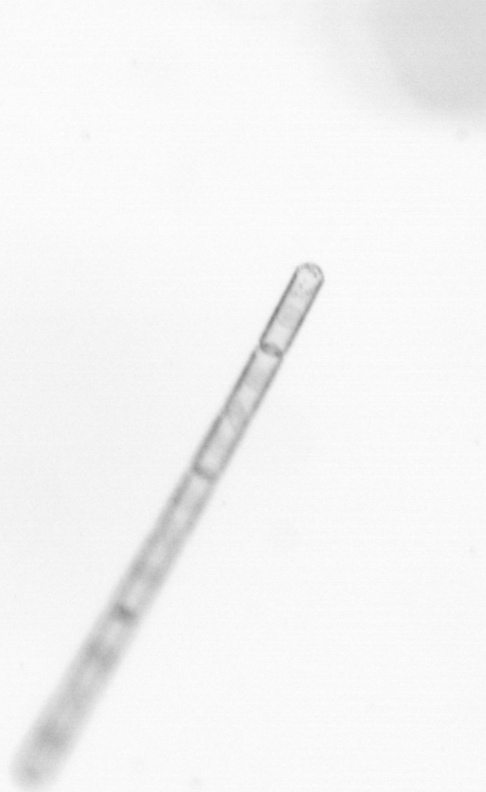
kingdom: Chromista
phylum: Ochrophyta
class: Bacillariophyceae
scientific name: Bacillariophyceae
